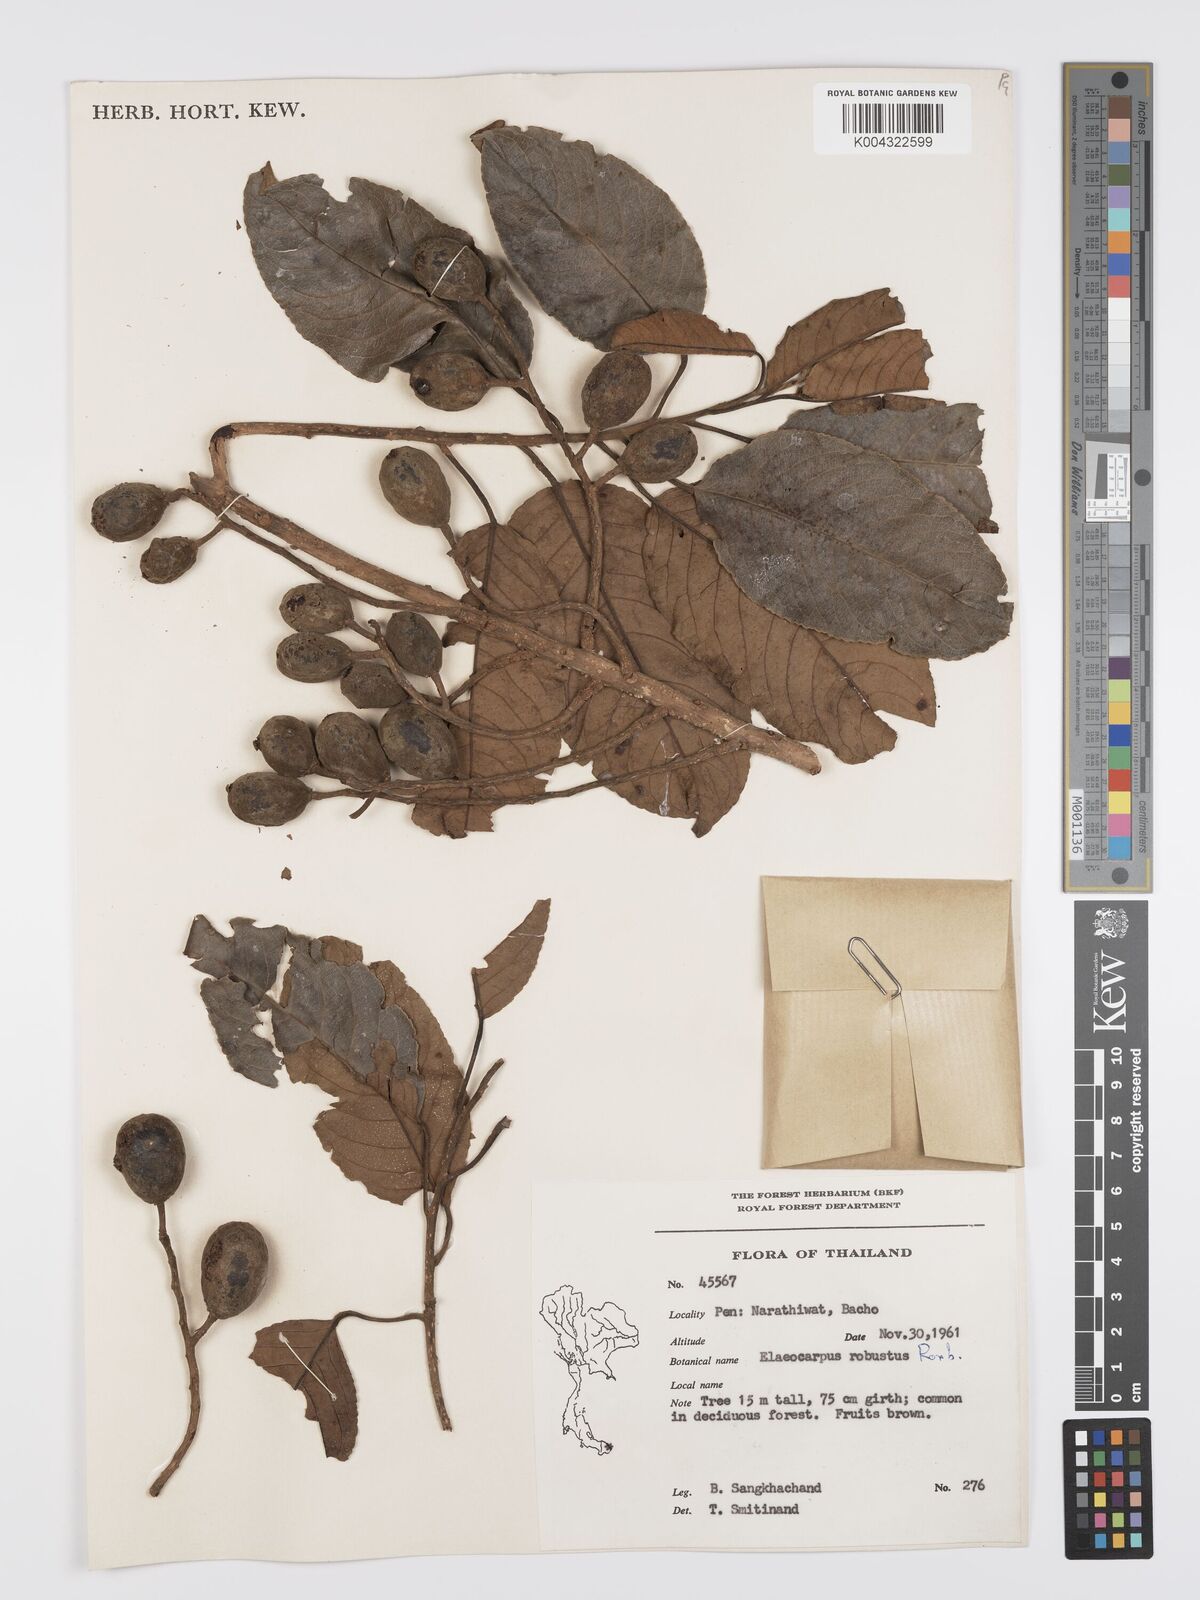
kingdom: Plantae
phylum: Tracheophyta
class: Magnoliopsida
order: Oxalidales
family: Elaeocarpaceae
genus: Elaeocarpus
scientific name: Elaeocarpus robustus
